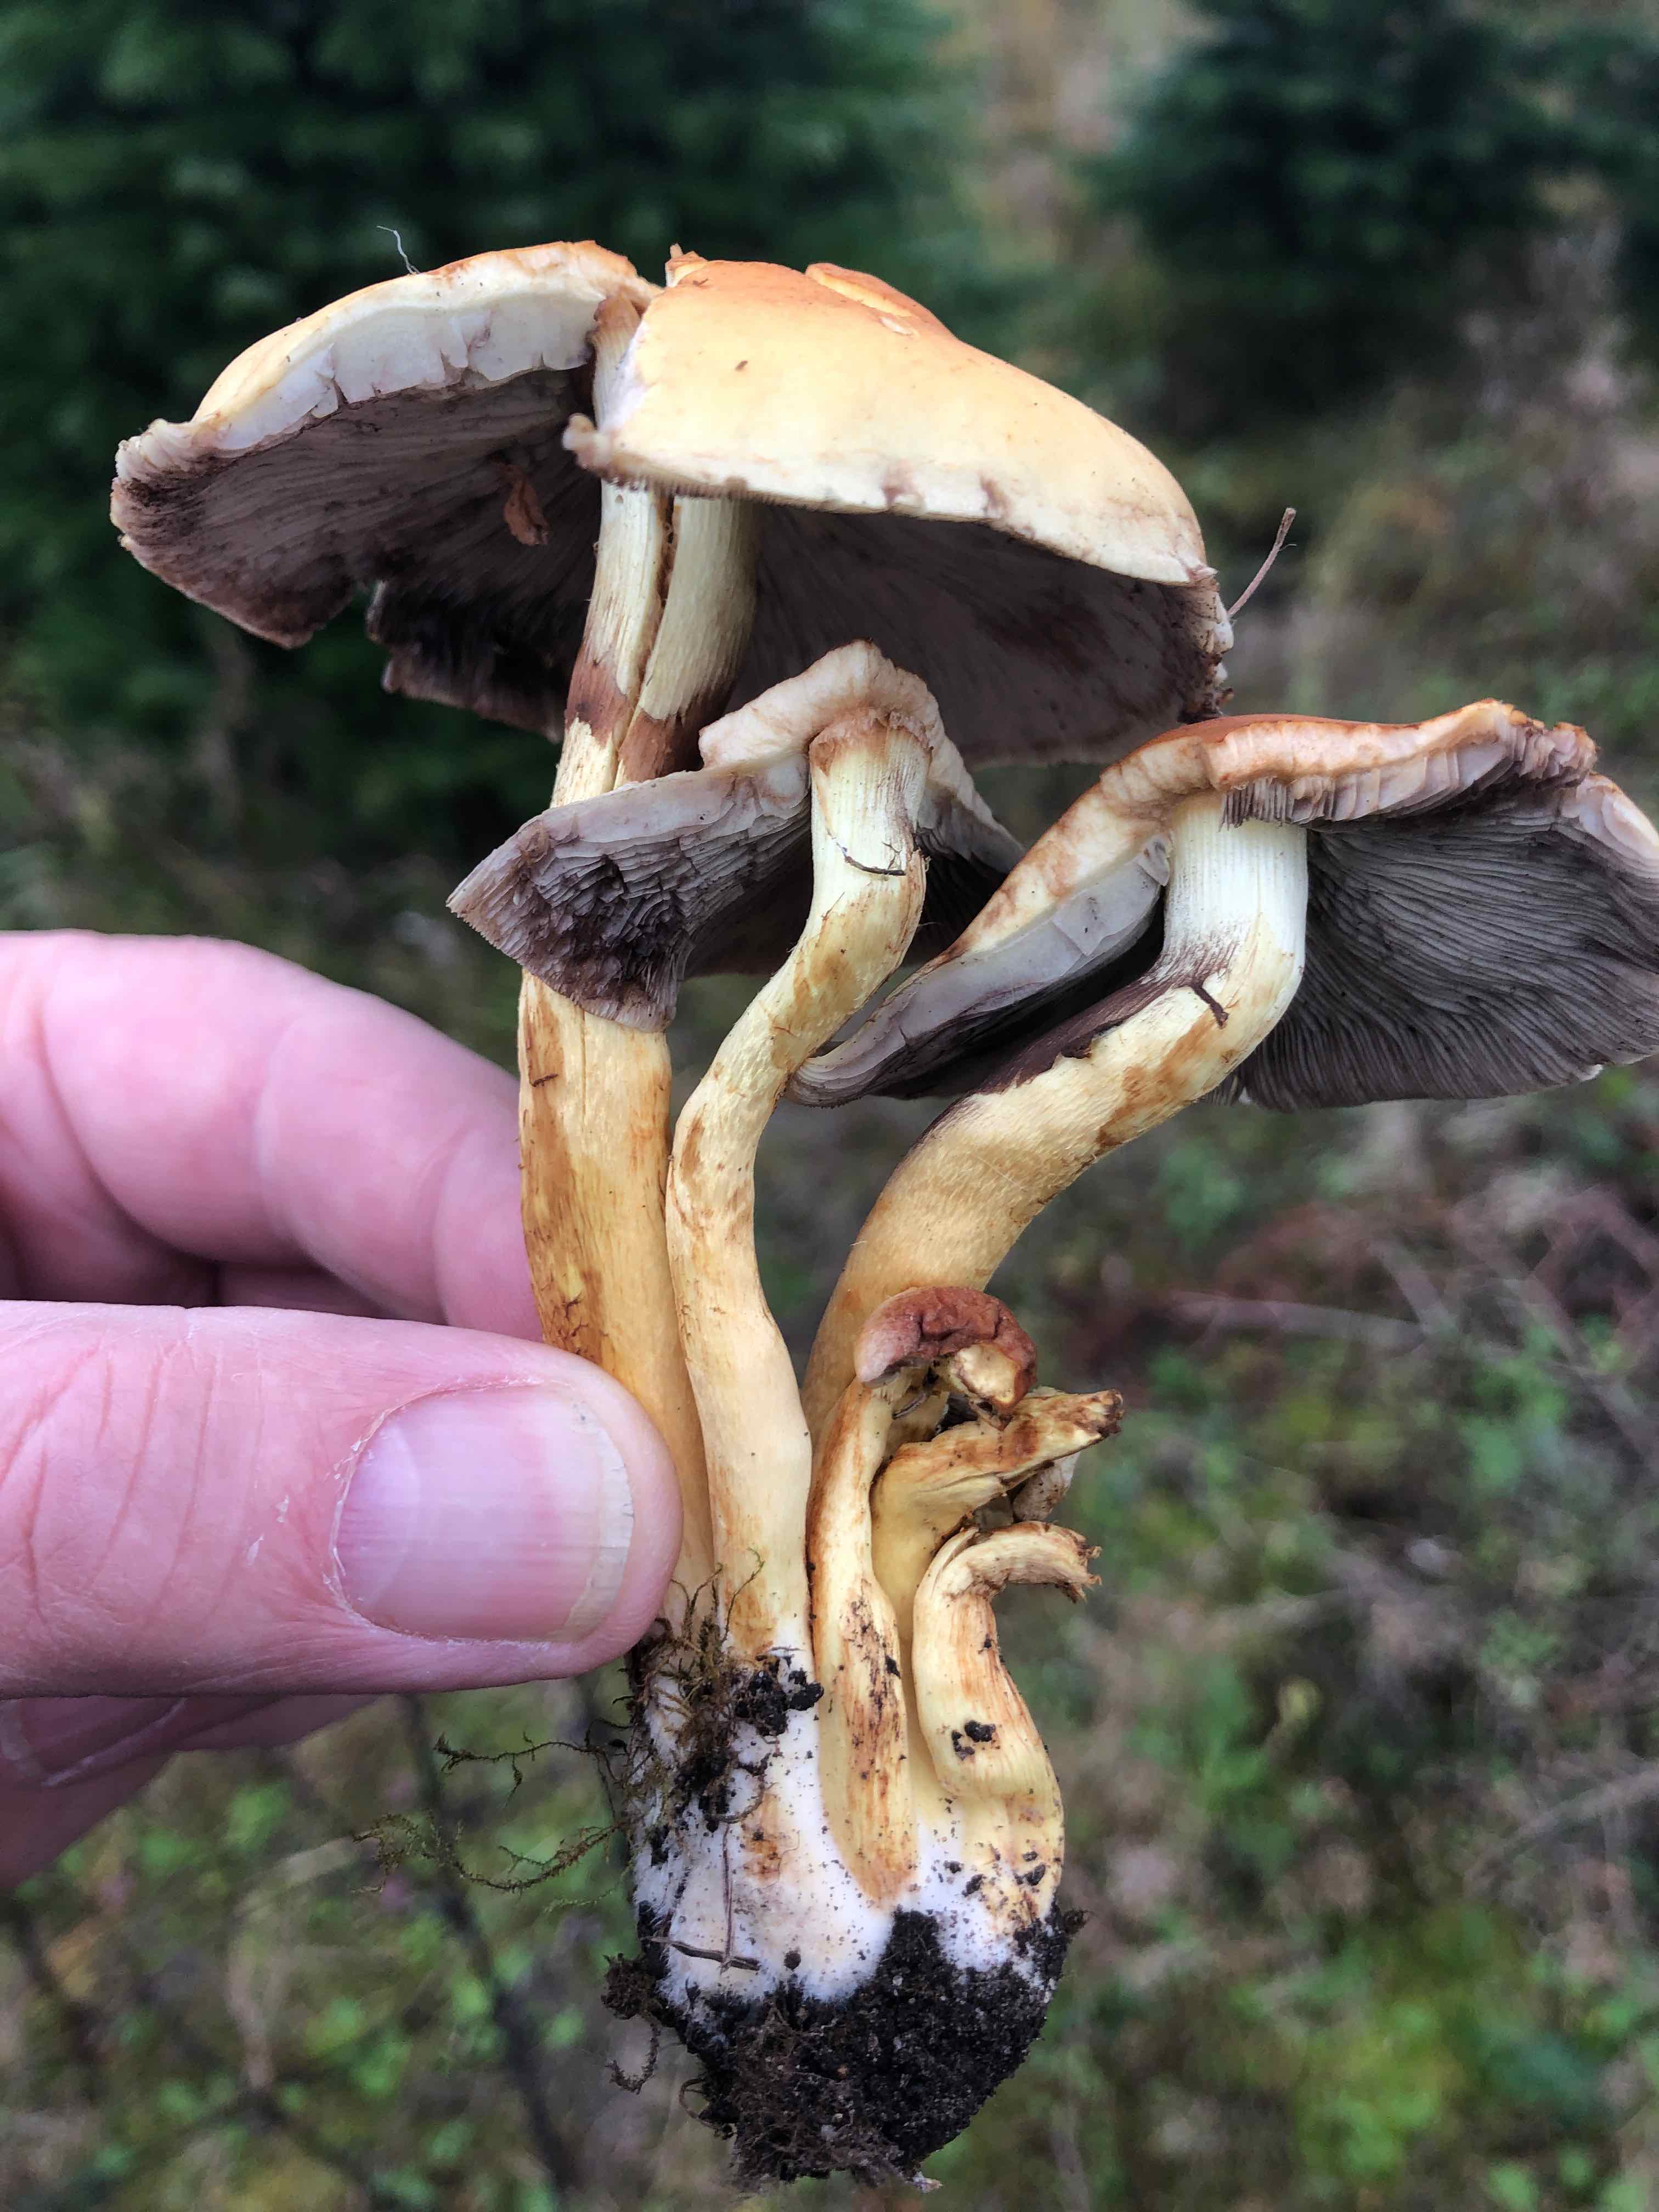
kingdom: Fungi
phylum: Basidiomycota
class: Agaricomycetes
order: Agaricales
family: Strophariaceae
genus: Hypholoma
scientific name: Hypholoma
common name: svovlhat
